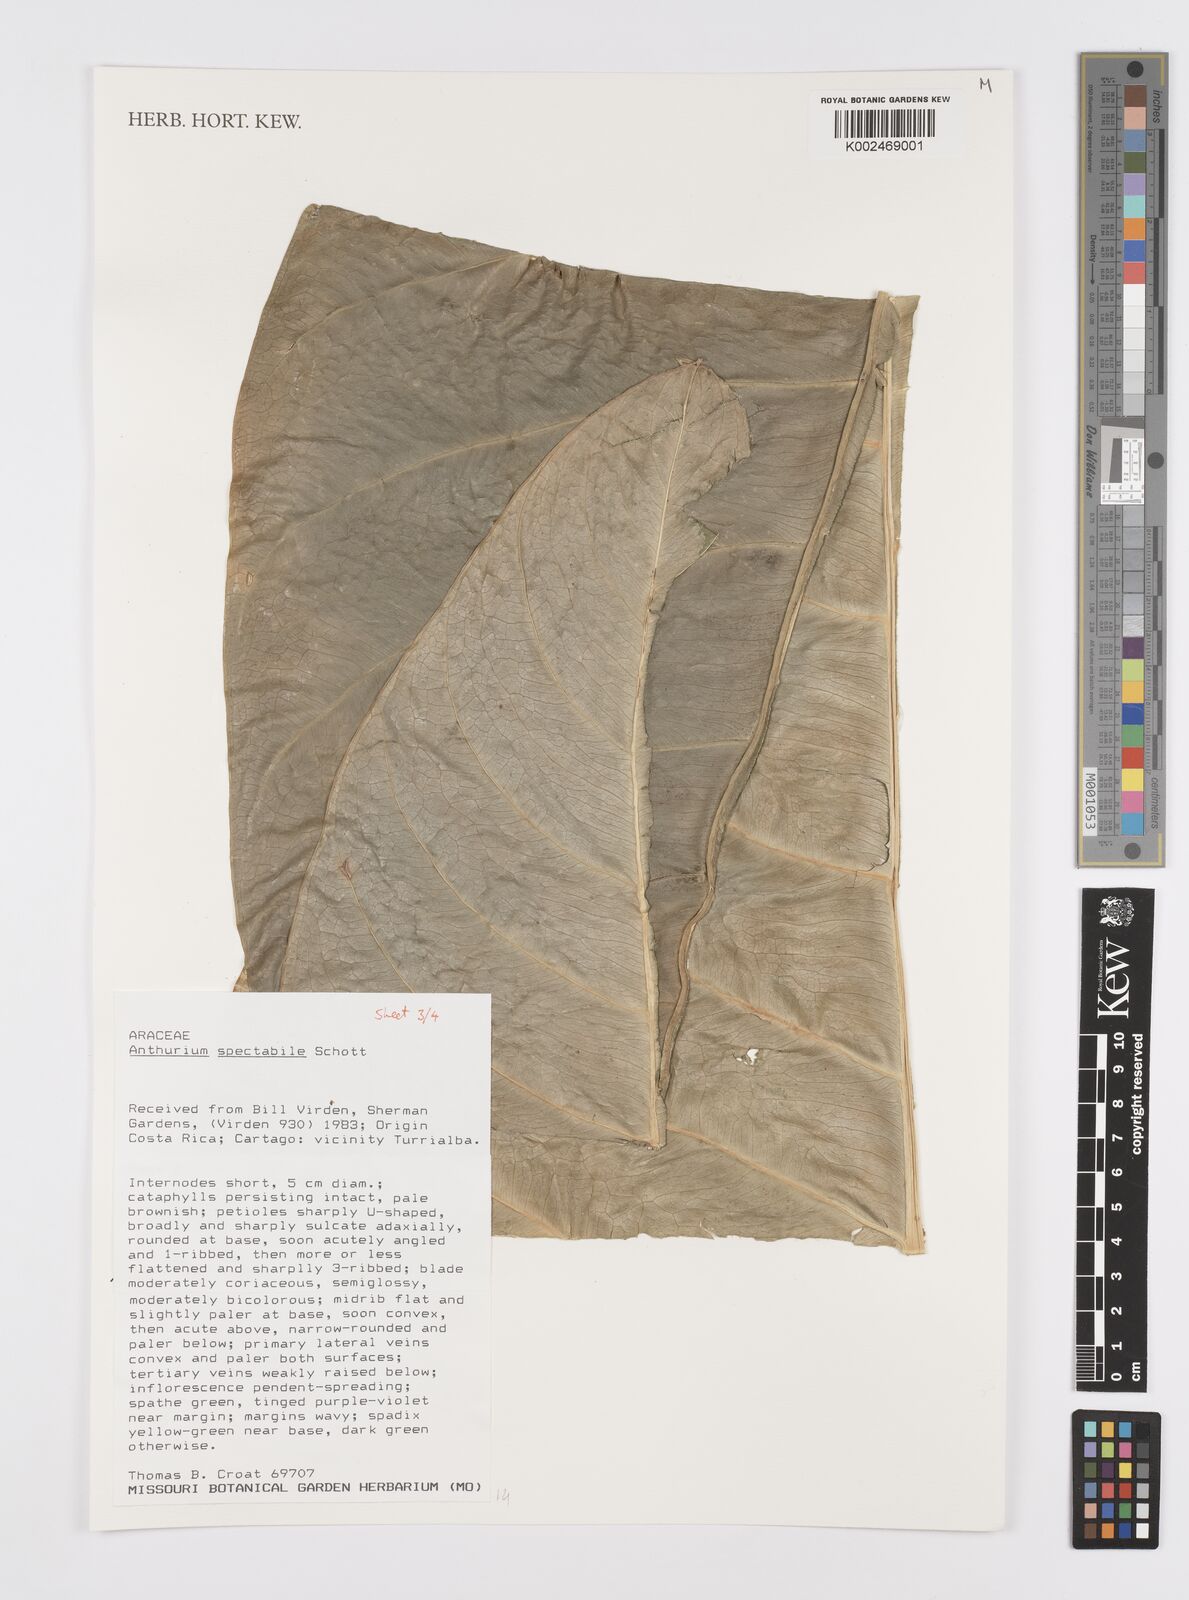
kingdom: Plantae
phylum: Tracheophyta
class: Liliopsida
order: Alismatales
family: Araceae
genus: Anthurium
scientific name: Anthurium spectabile
